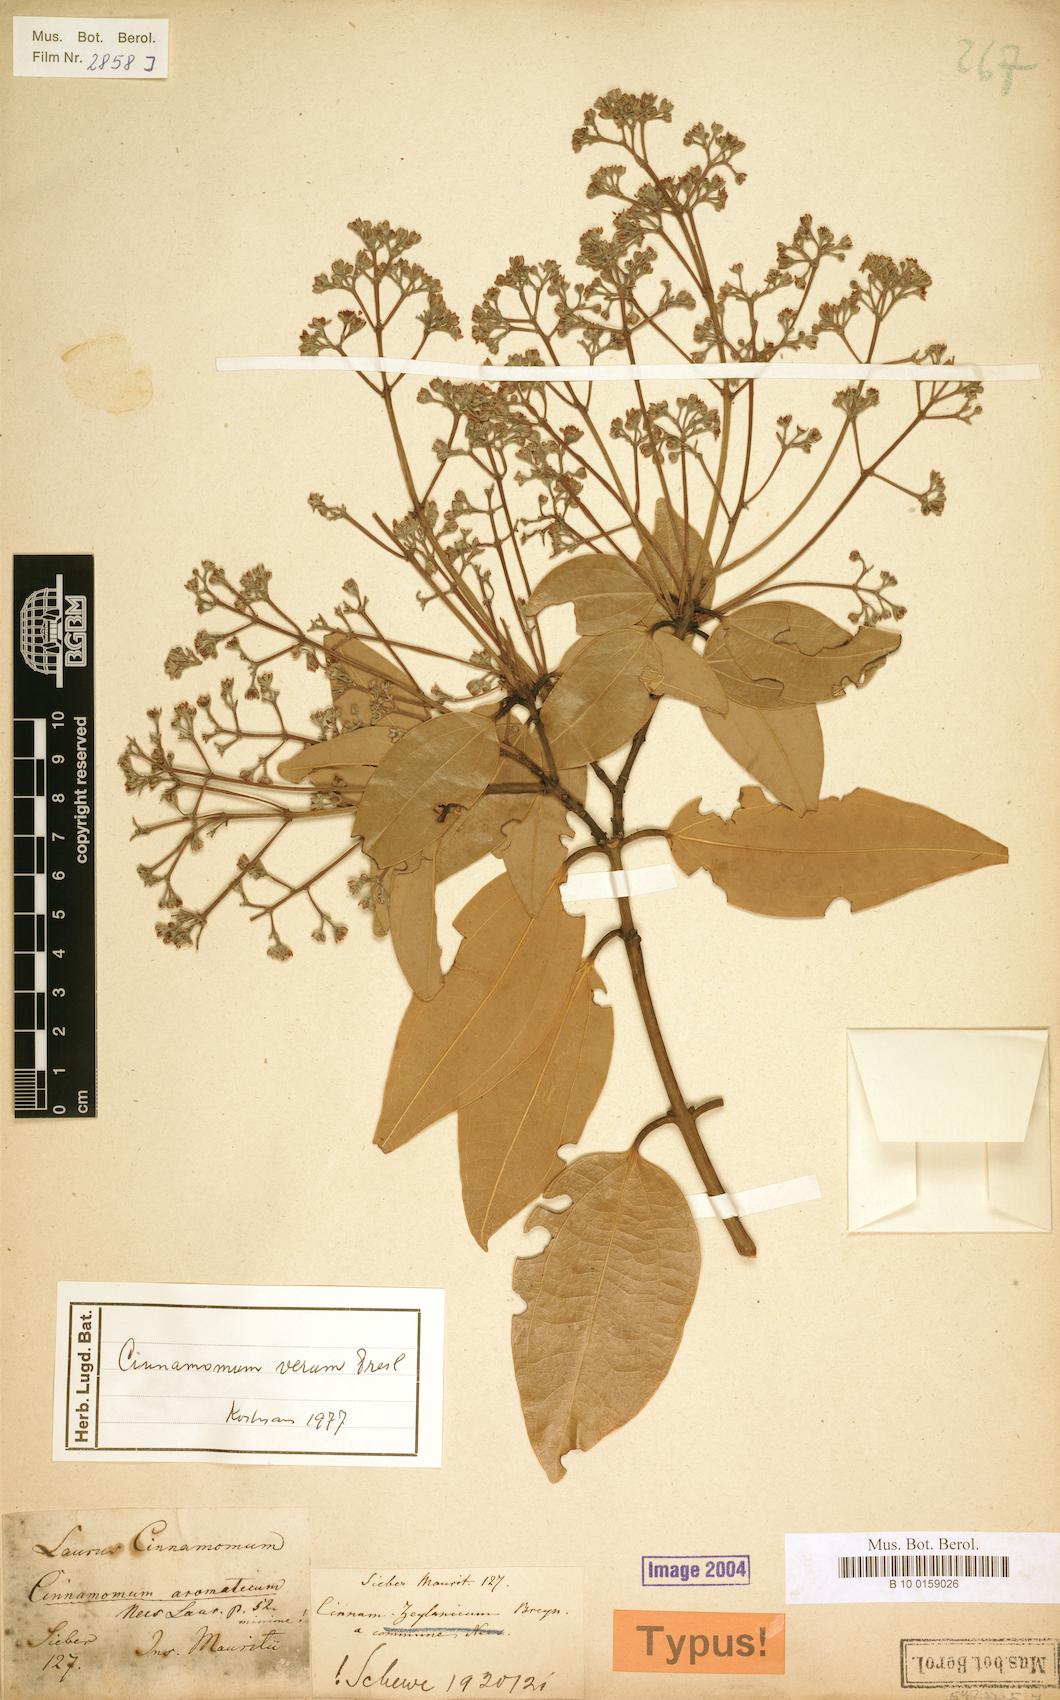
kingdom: Plantae
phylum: Tracheophyta
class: Magnoliopsida
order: Laurales
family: Lauraceae
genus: Cinnamomum
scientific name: Cinnamomum verum
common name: Cinnamon
